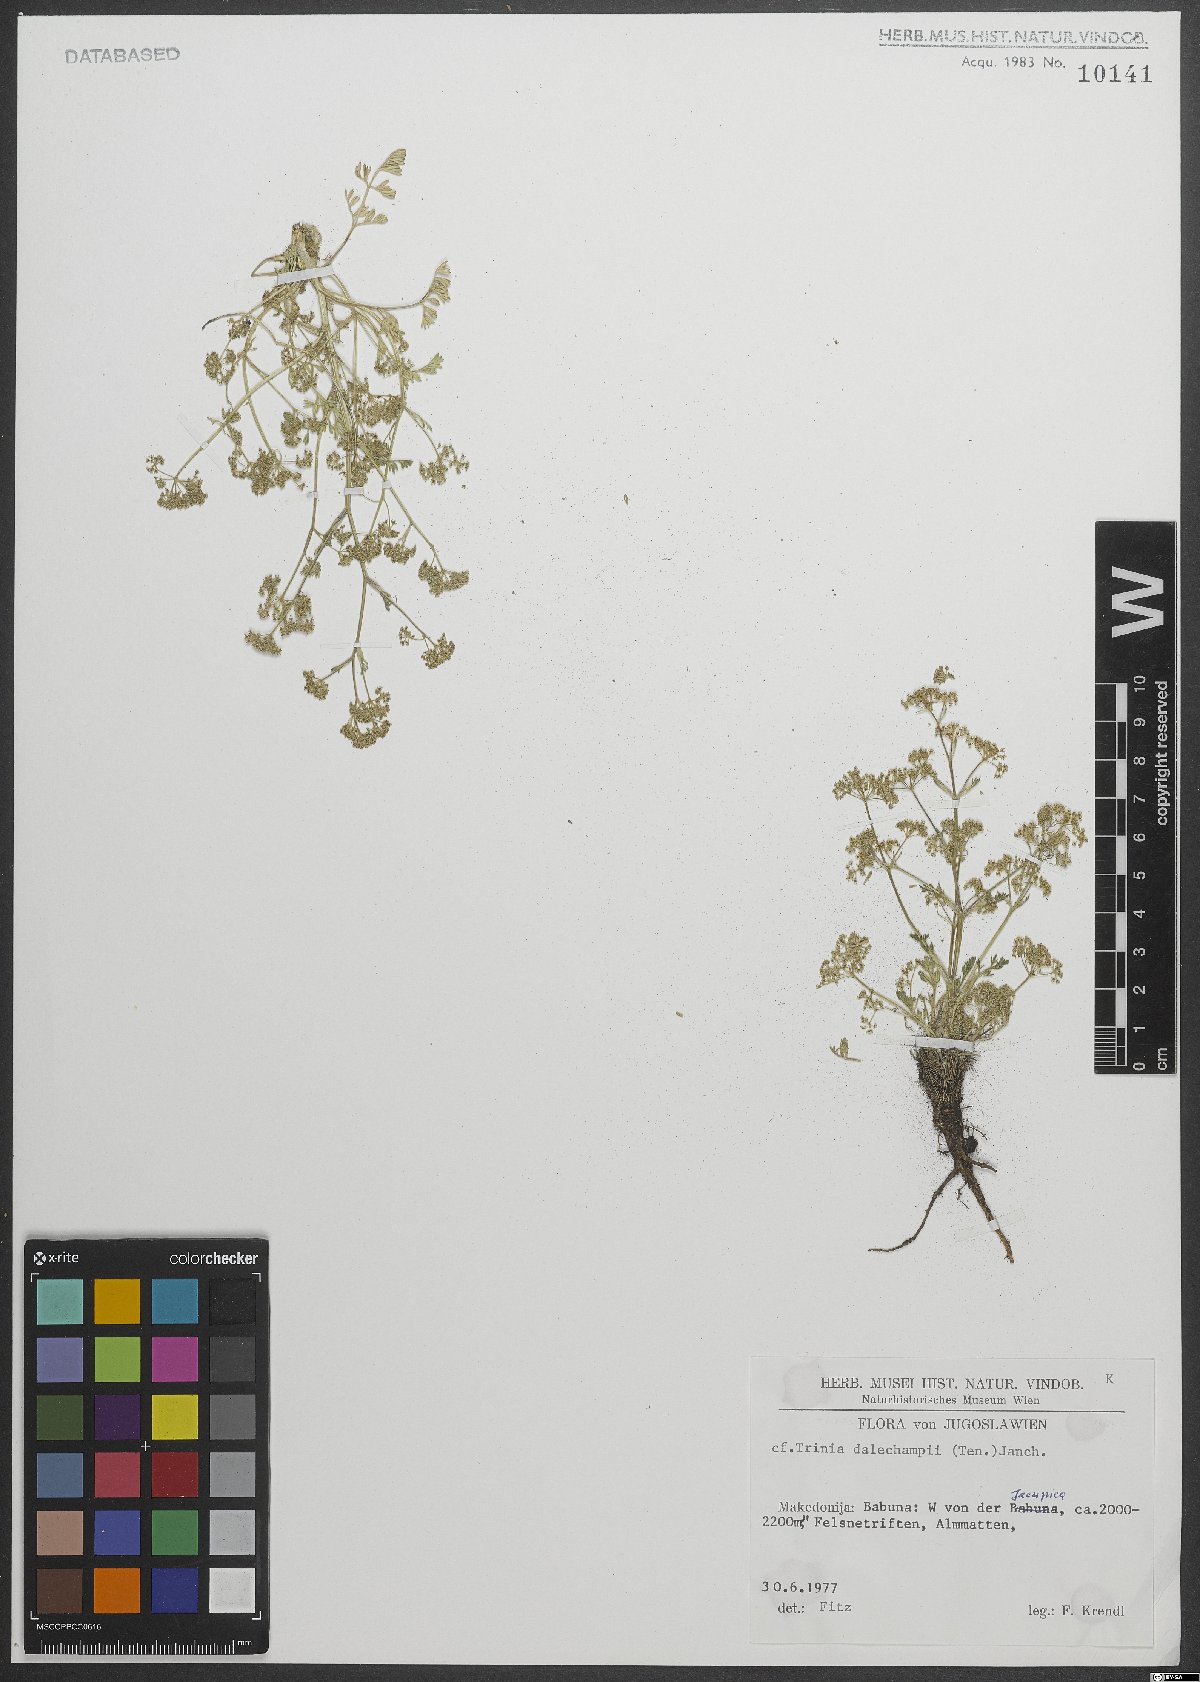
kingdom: Plantae
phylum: Tracheophyta
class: Magnoliopsida
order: Apiales
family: Apiaceae
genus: Trinia
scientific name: Trinia dalechampii
